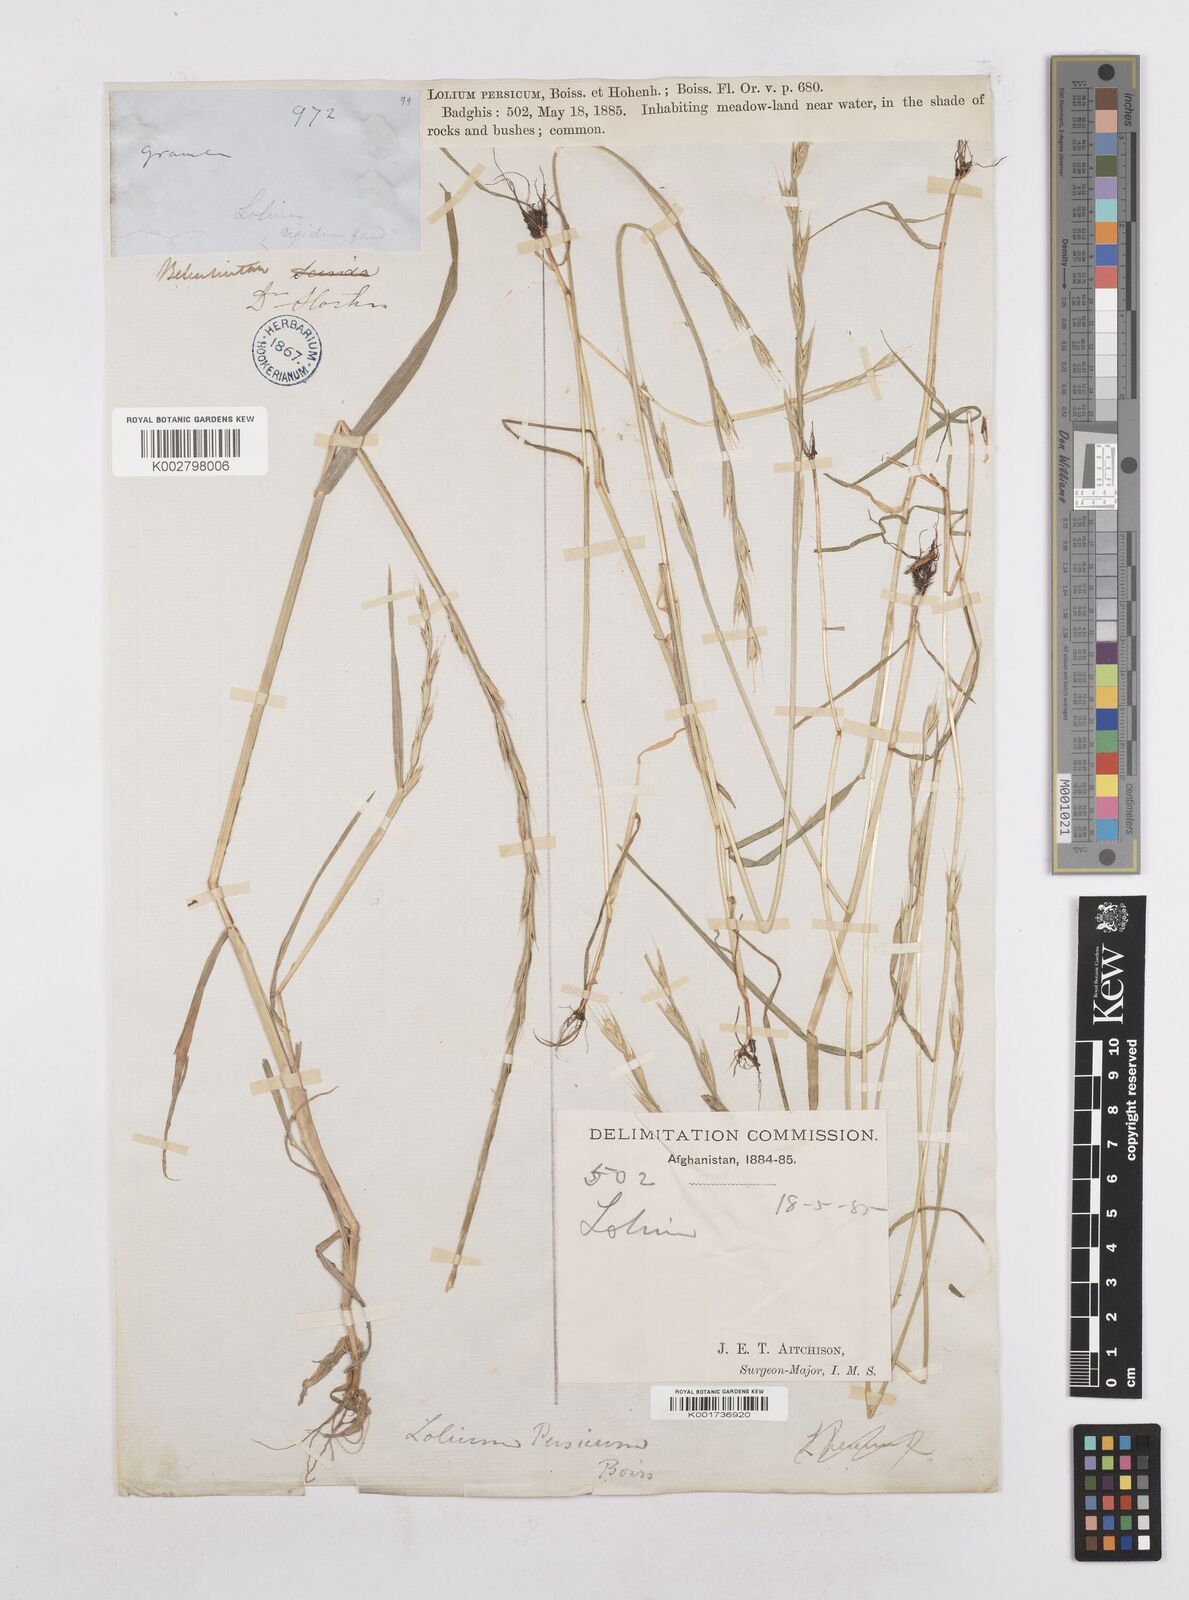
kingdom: Plantae
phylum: Tracheophyta
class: Liliopsida
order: Poales
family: Poaceae
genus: Lolium
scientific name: Lolium persicum
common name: Persian ryegrass
